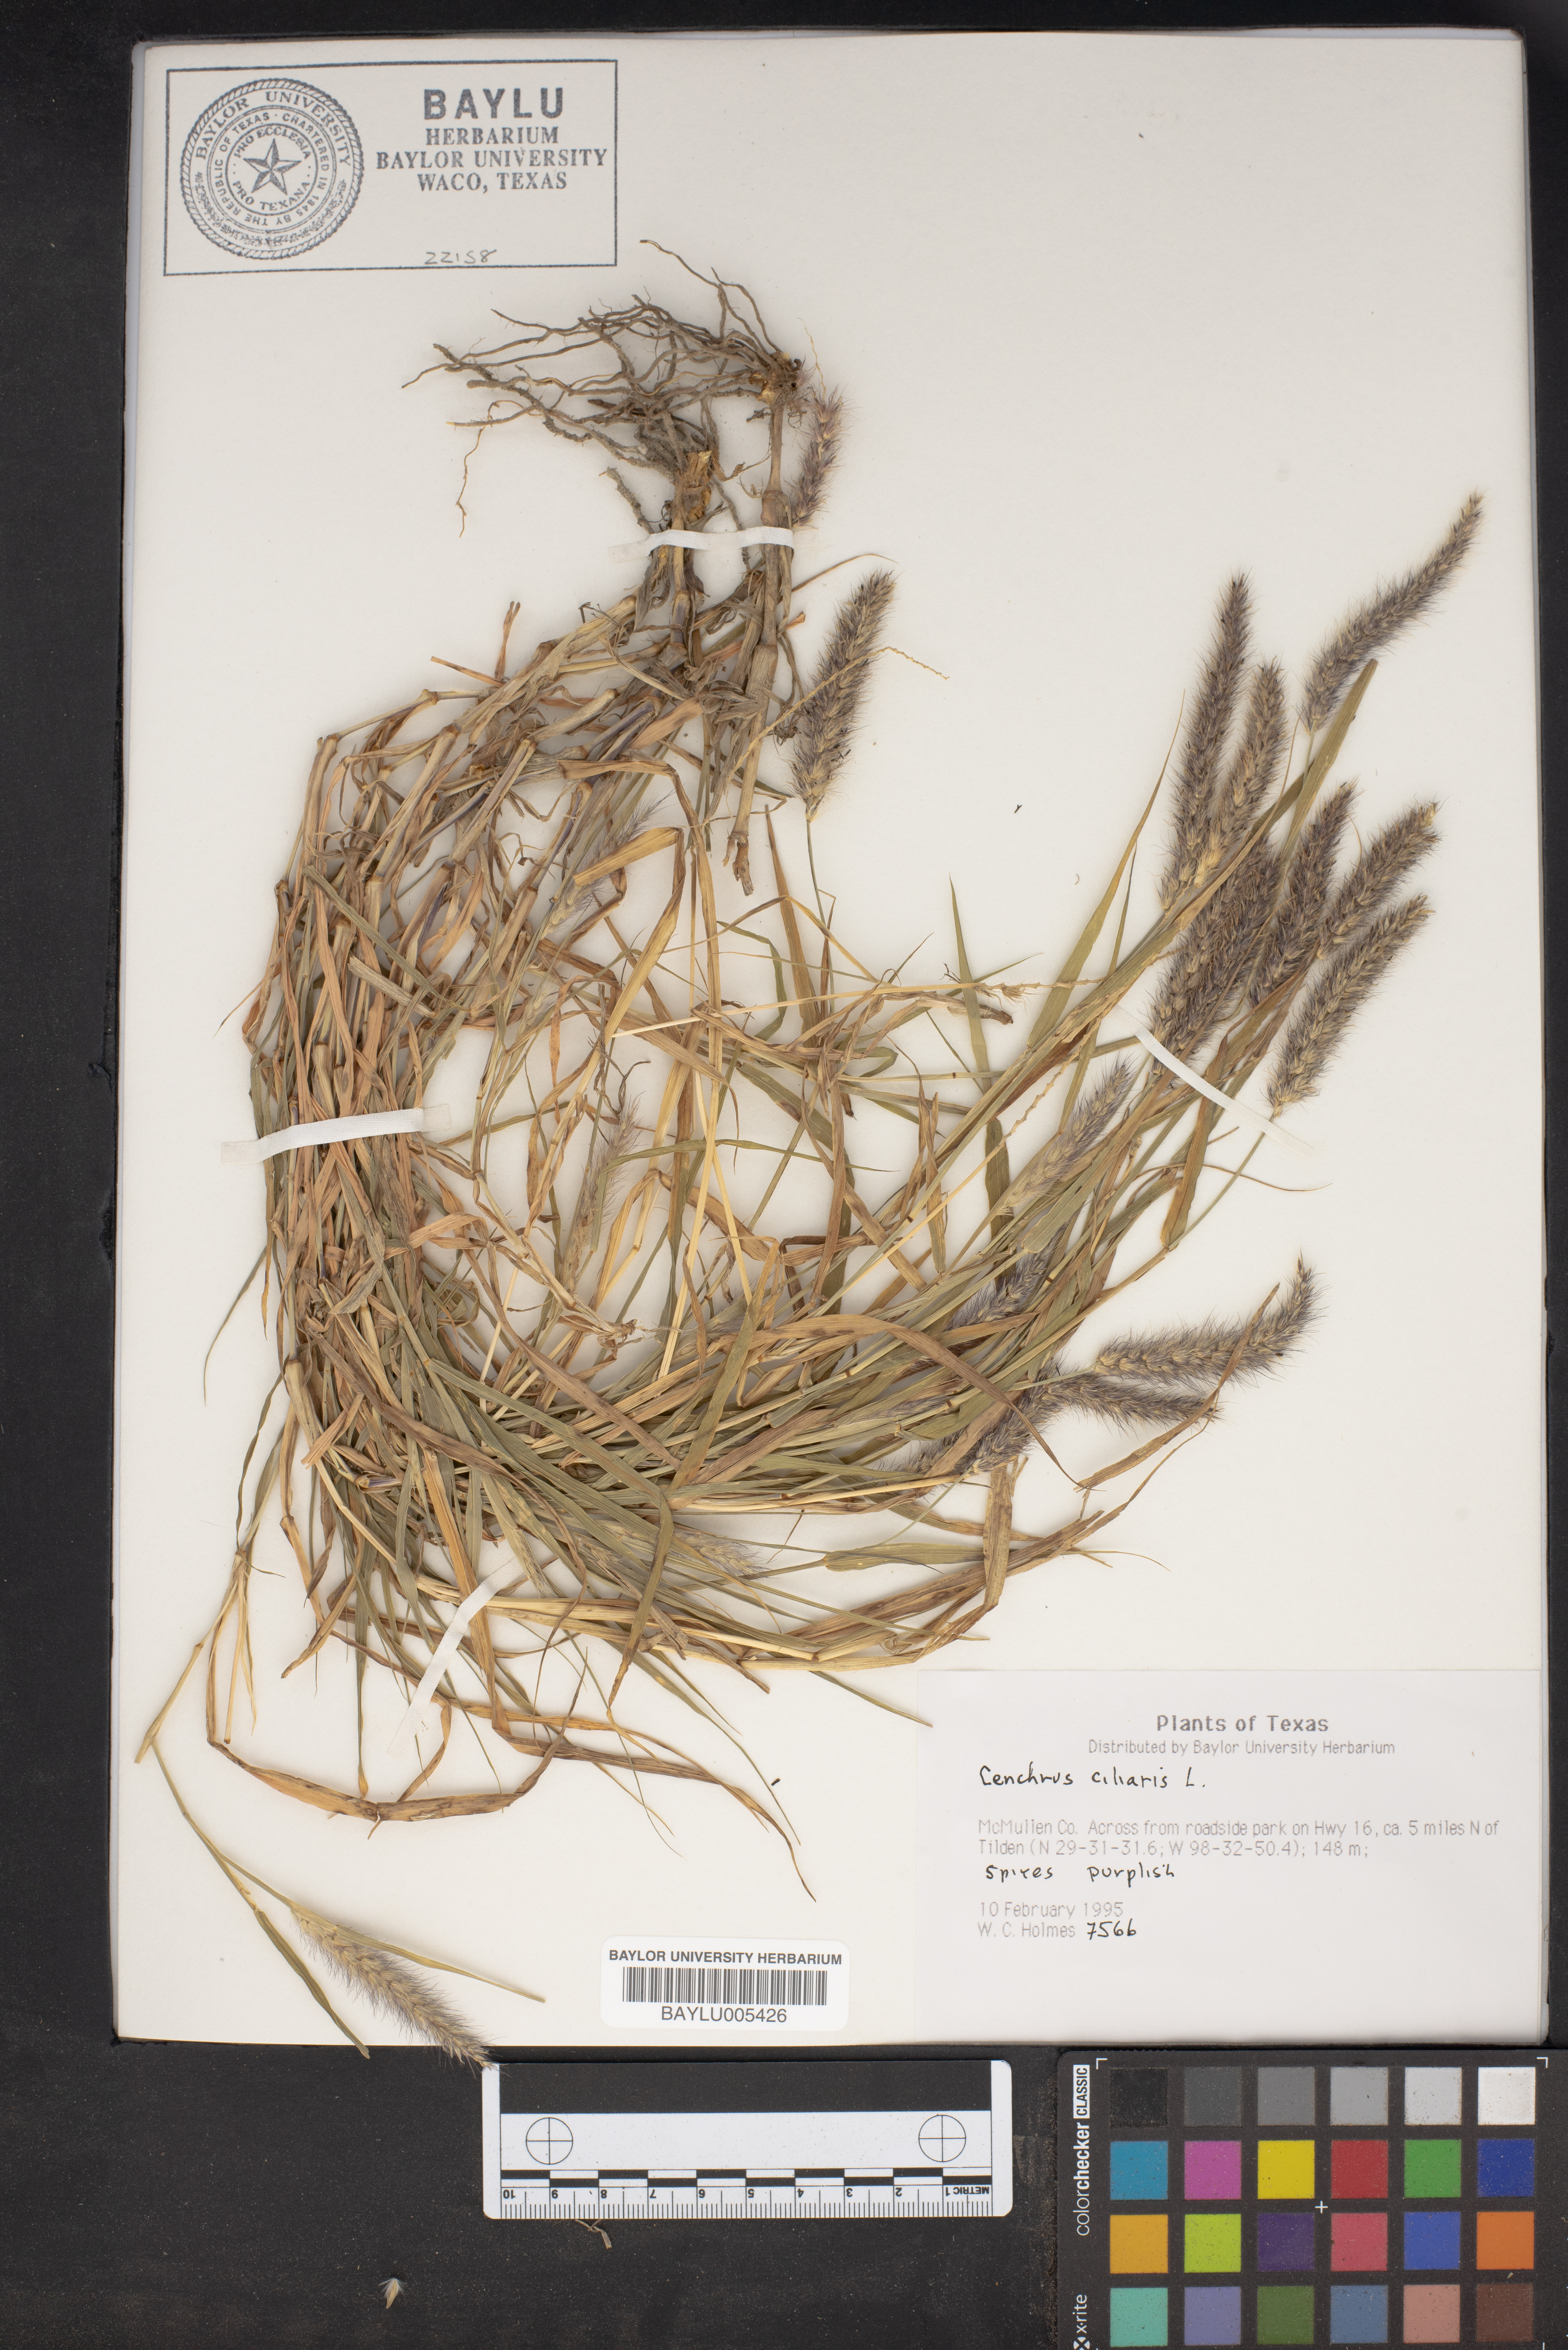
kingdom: Plantae
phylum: Tracheophyta
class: Liliopsida
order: Poales
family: Poaceae
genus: Cenchrus
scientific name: Cenchrus ciliaris
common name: Buffelgrass
